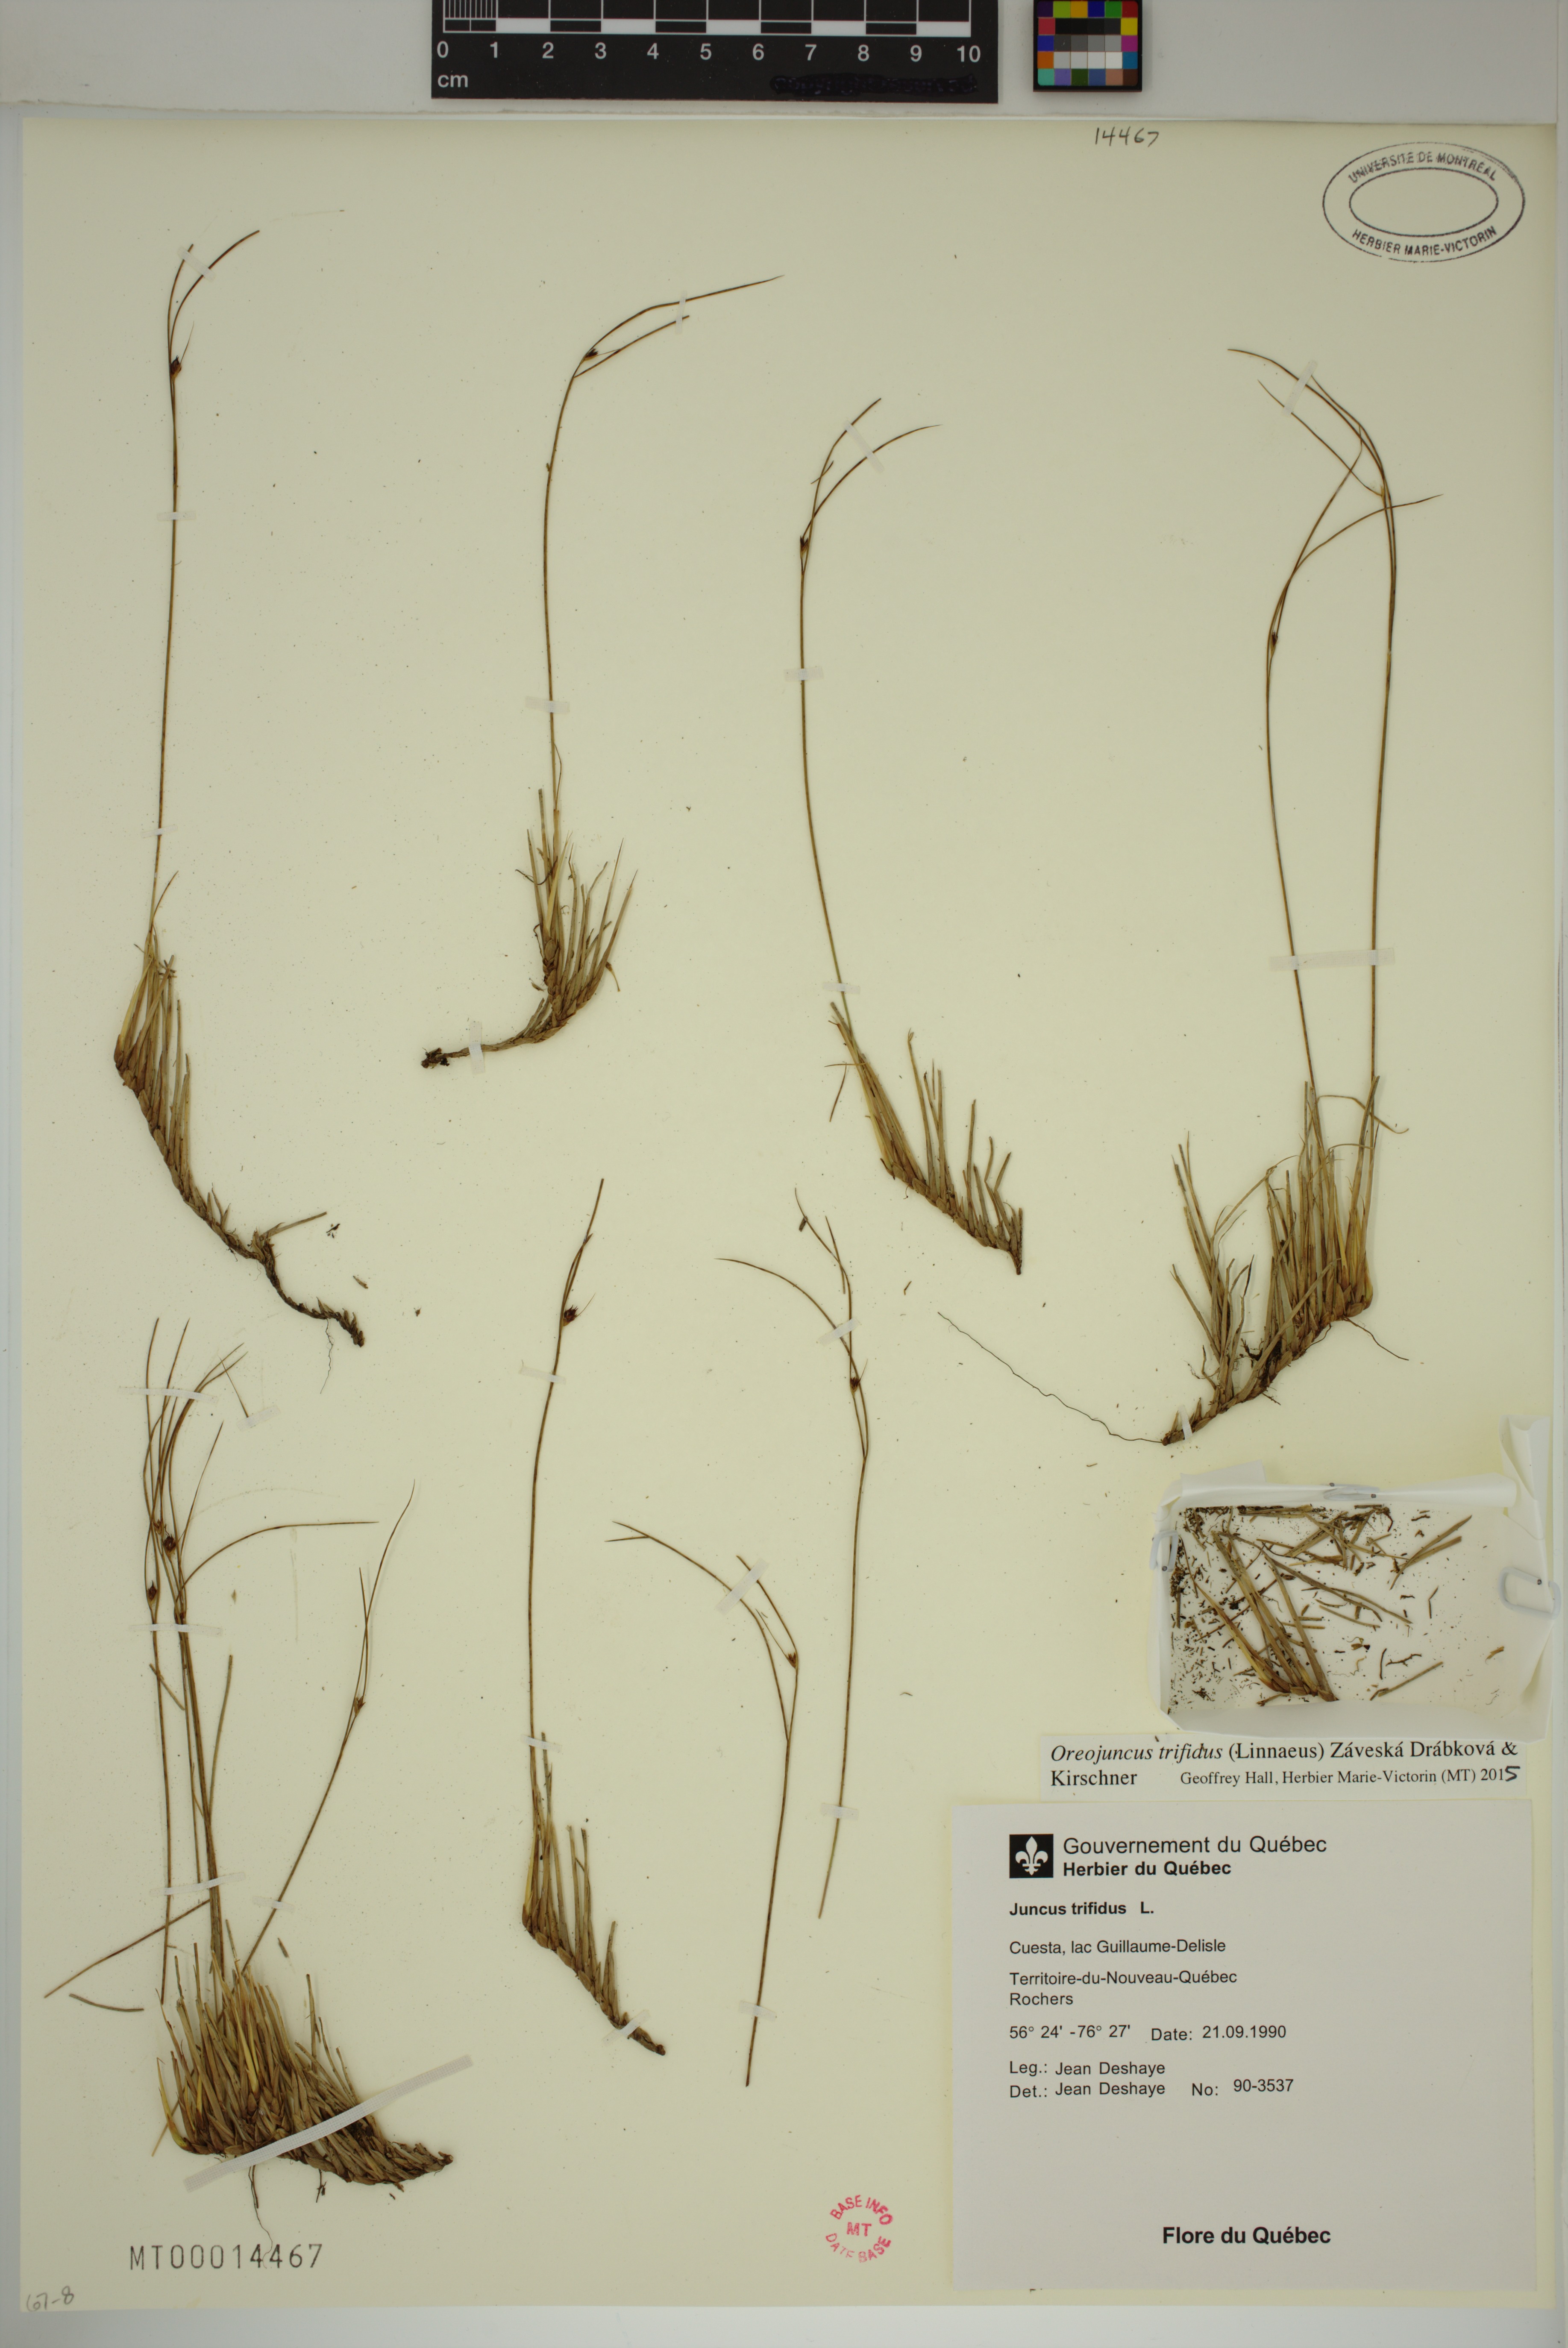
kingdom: Plantae
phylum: Tracheophyta
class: Liliopsida
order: Poales
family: Juncaceae
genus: Oreojuncus
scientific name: Oreojuncus trifidus
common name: Highland rush
